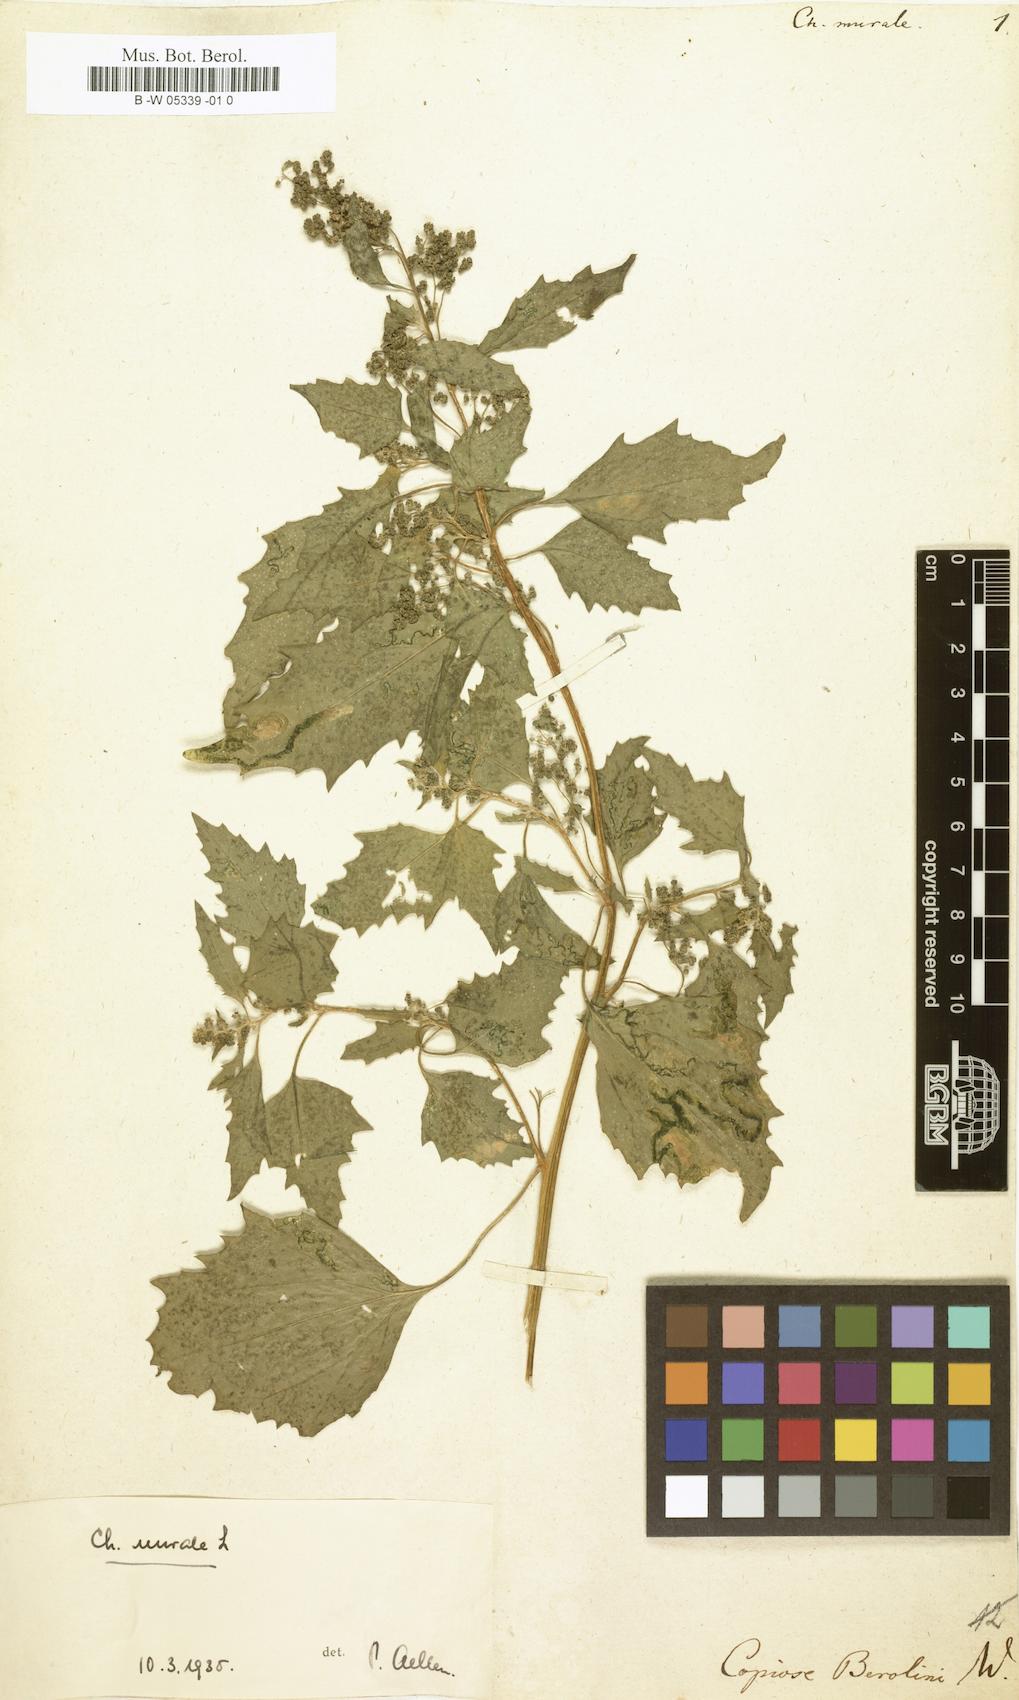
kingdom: Plantae
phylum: Tracheophyta
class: Magnoliopsida
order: Caryophyllales
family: Amaranthaceae
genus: Chenopodiastrum
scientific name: Chenopodiastrum murale
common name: Sowbane
